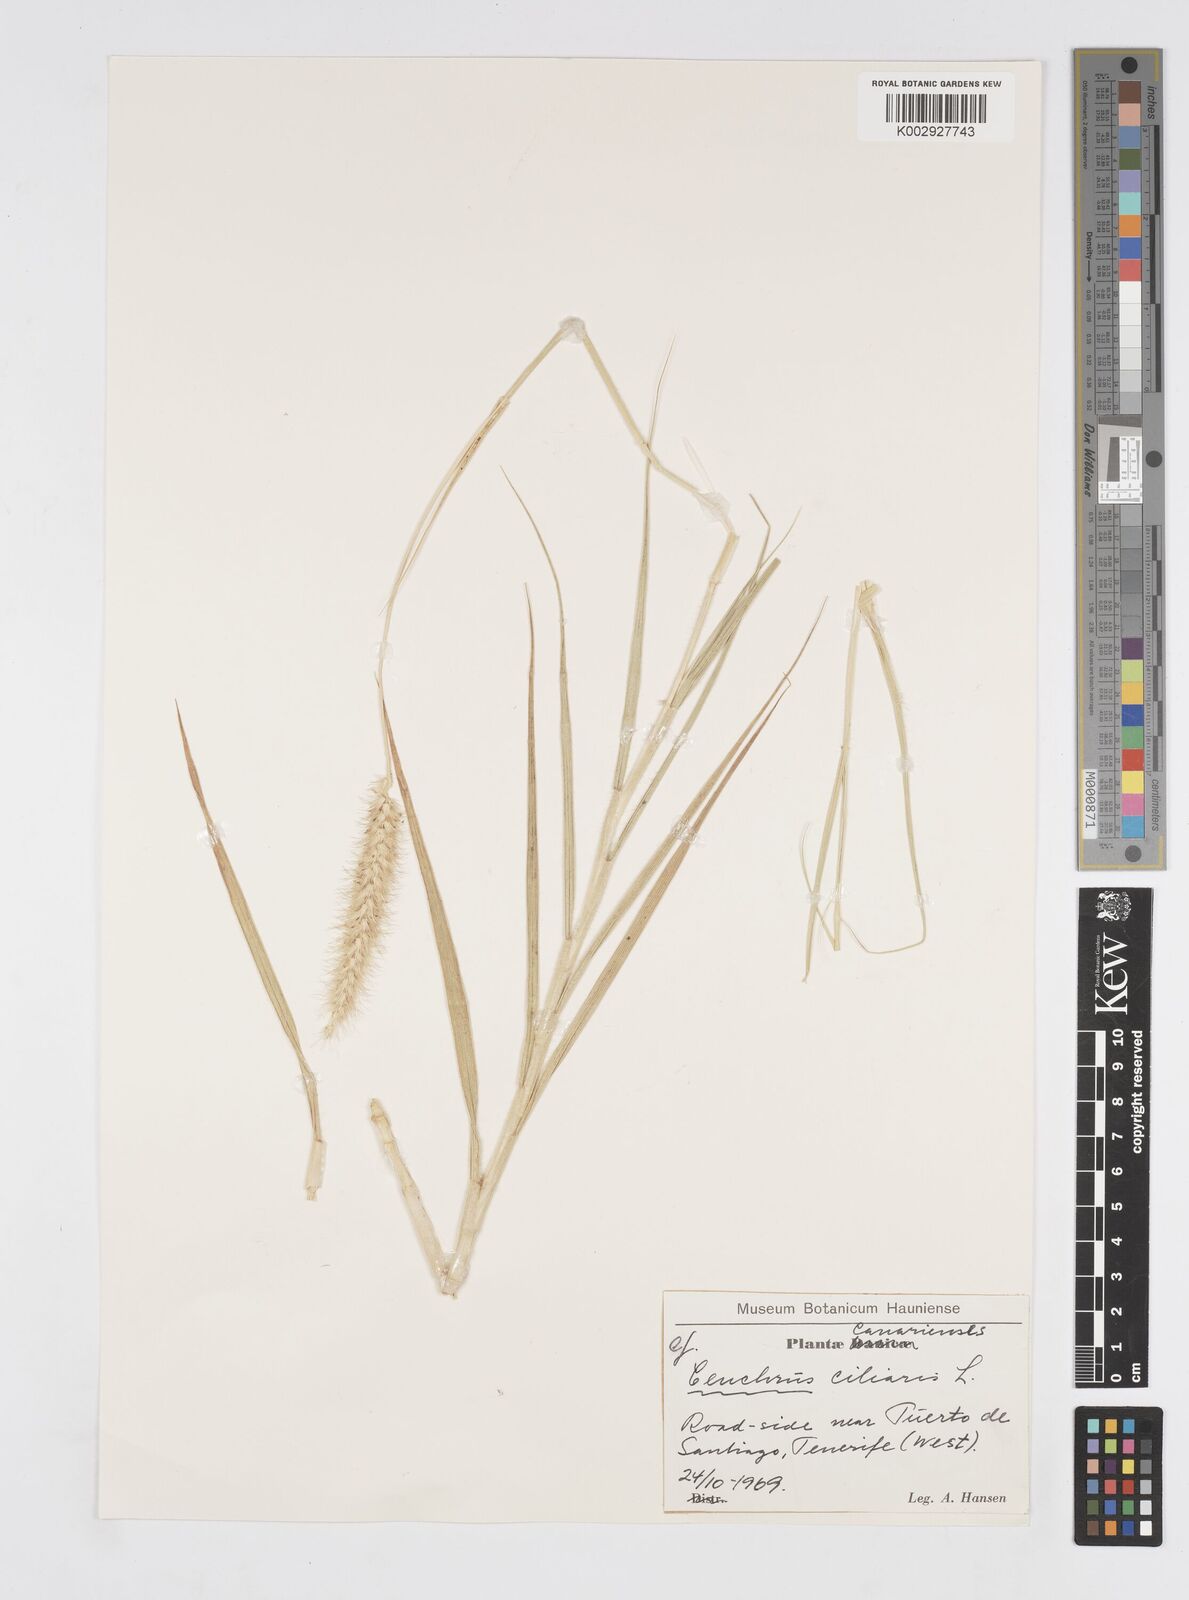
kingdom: Plantae
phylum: Tracheophyta
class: Liliopsida
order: Poales
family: Poaceae
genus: Cenchrus
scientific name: Cenchrus ciliaris
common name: Buffelgrass
